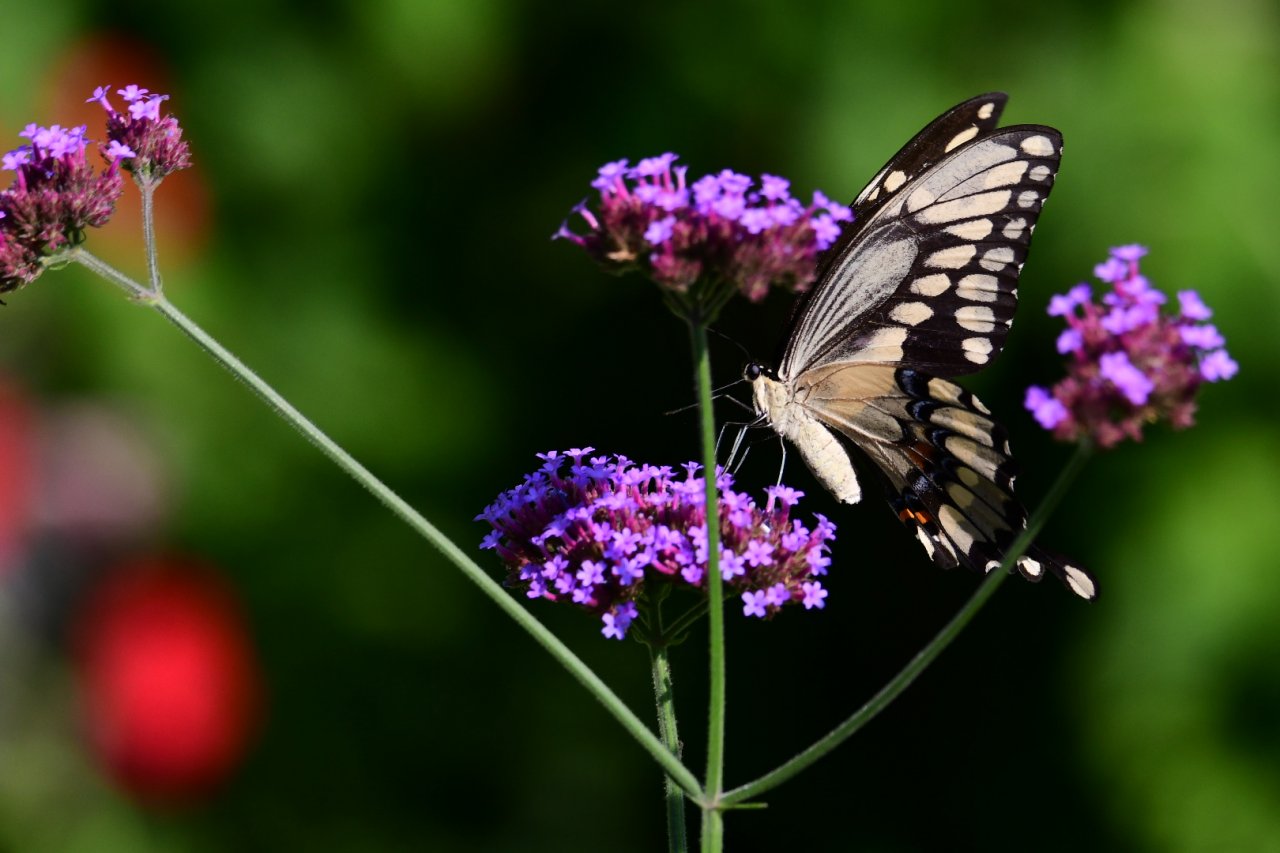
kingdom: Animalia
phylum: Arthropoda
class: Insecta
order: Lepidoptera
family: Papilionidae
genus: Papilio
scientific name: Papilio cresphontes
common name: Eastern Giant Swallowtail
